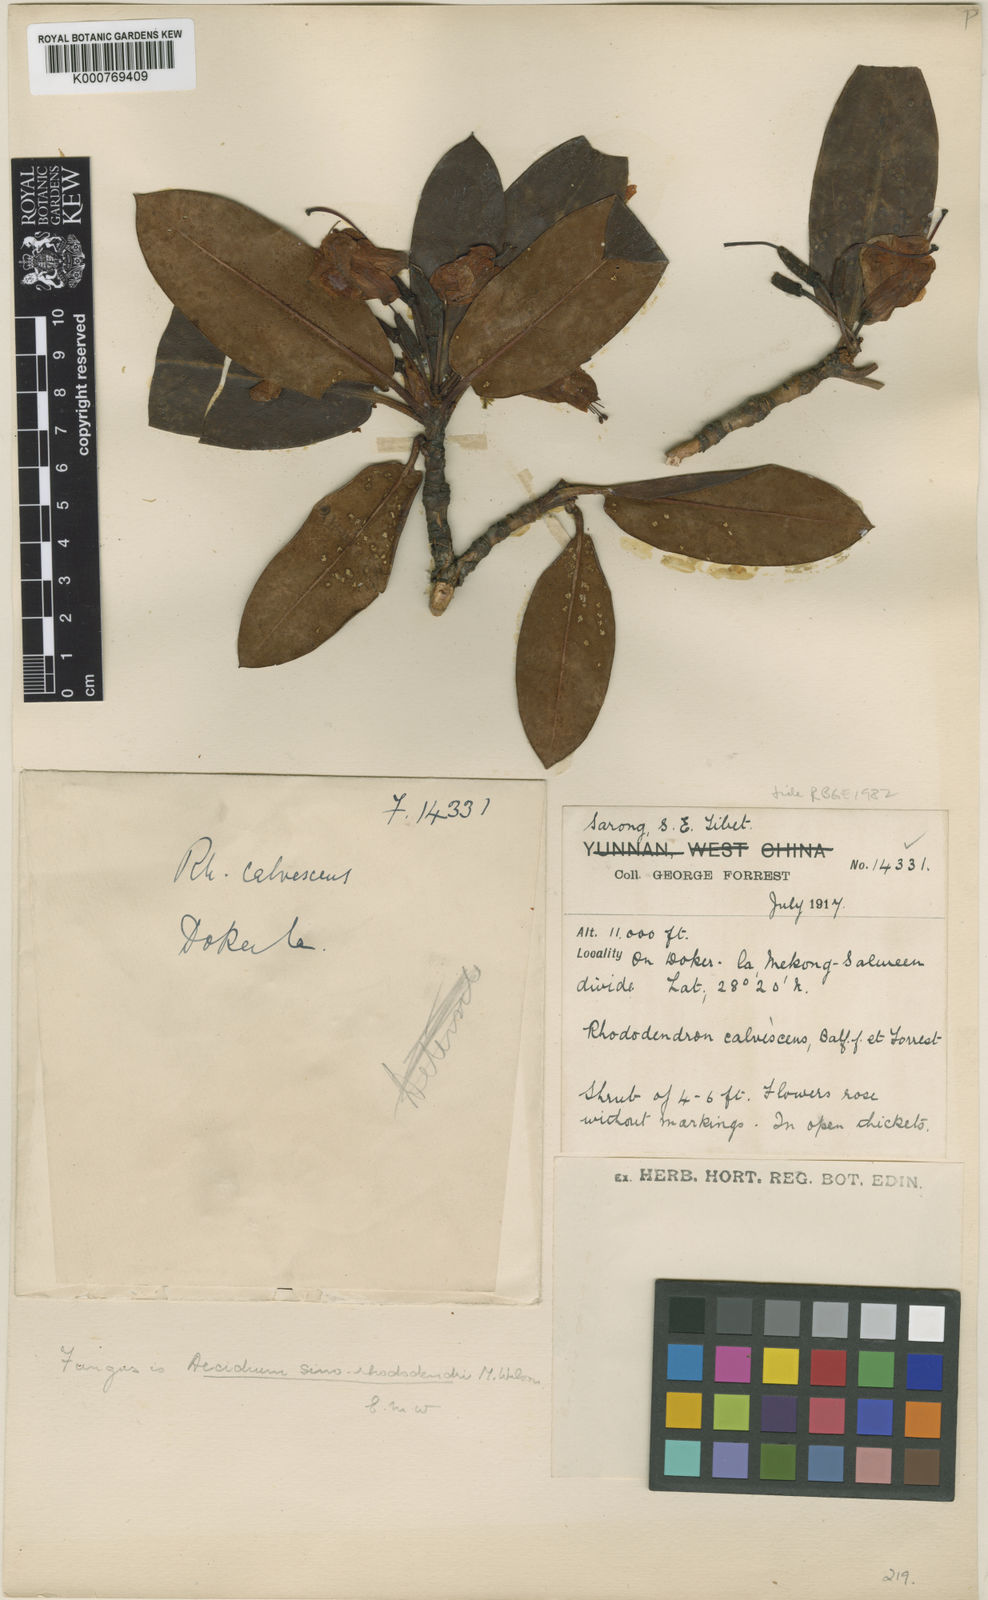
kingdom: Plantae
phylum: Tracheophyta
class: Magnoliopsida
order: Ericales
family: Ericaceae
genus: Rhododendron
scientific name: Rhododendron calvescens
